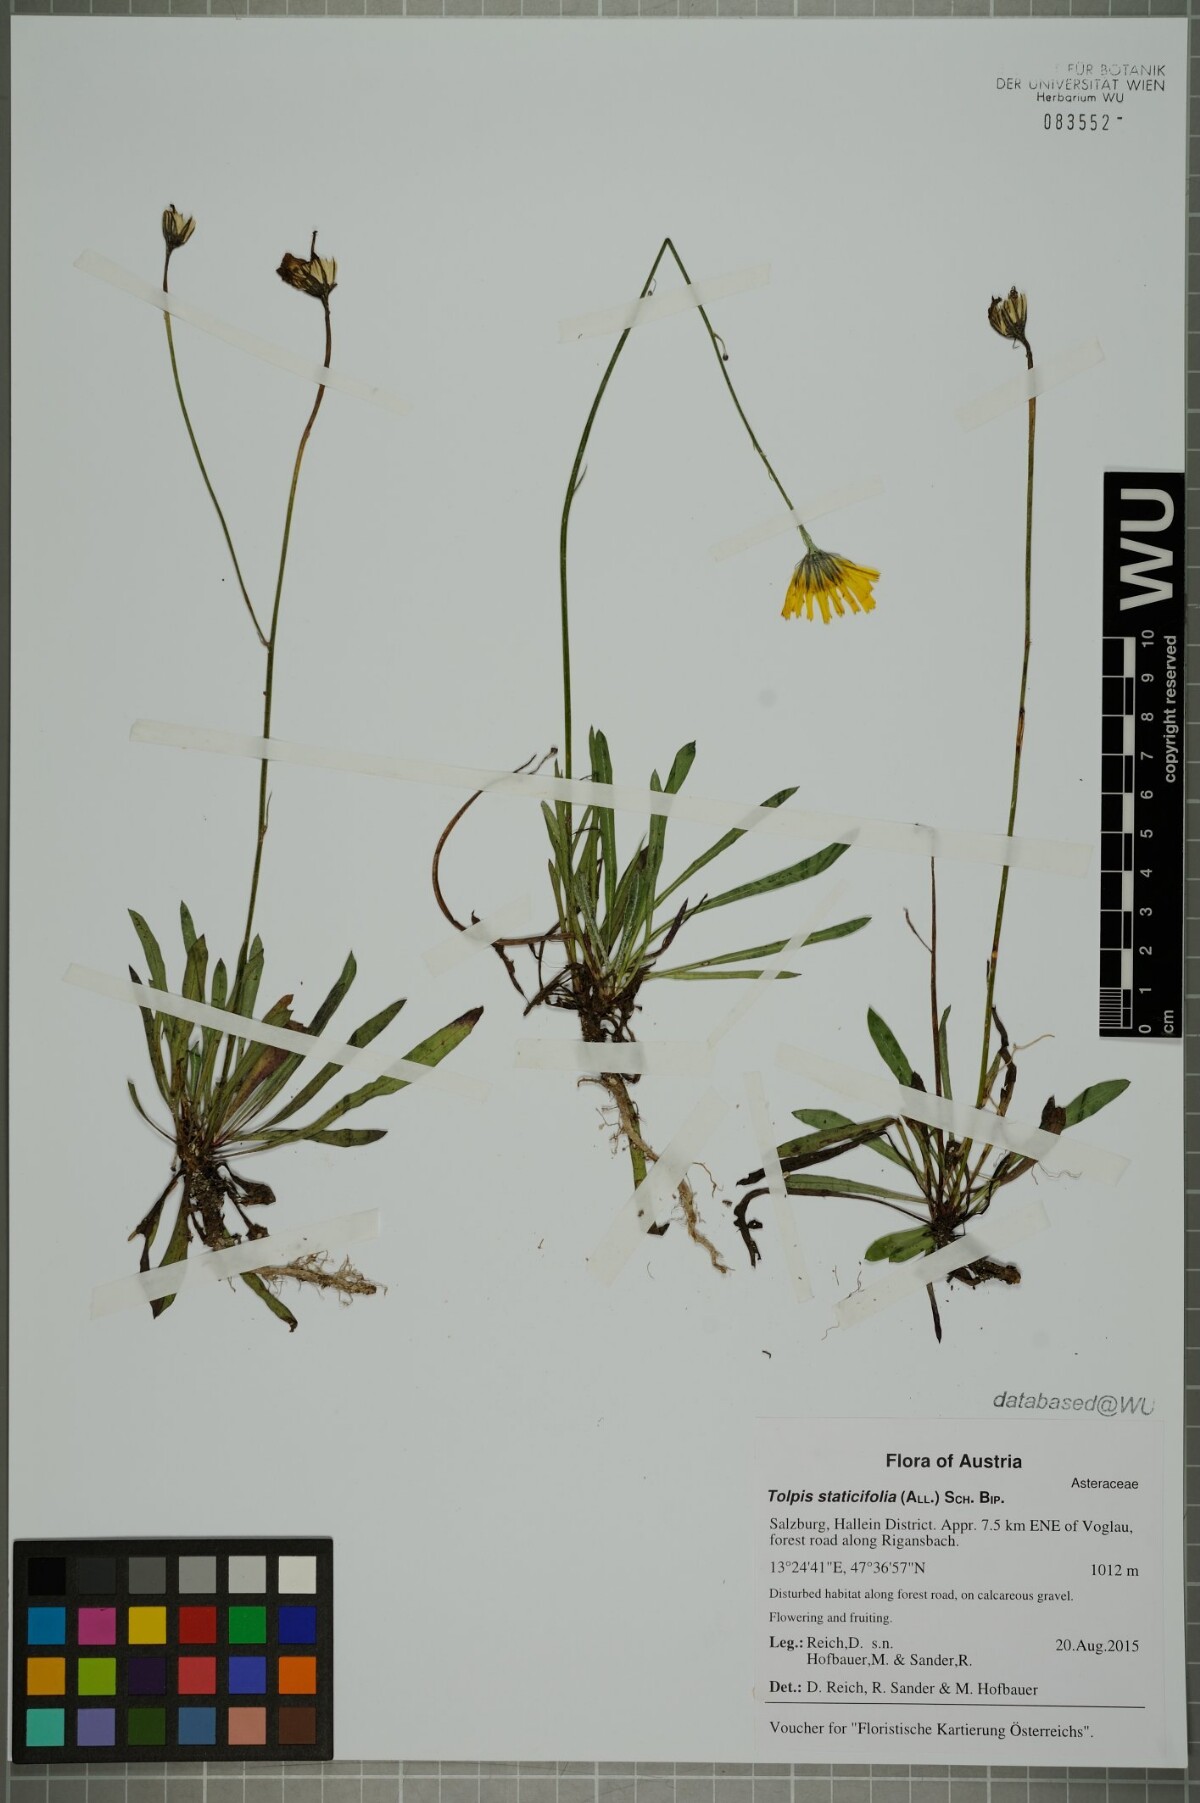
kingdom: Plantae
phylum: Tracheophyta
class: Magnoliopsida
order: Asterales
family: Asteraceae
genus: Tolpis
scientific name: Tolpis staticifolia
